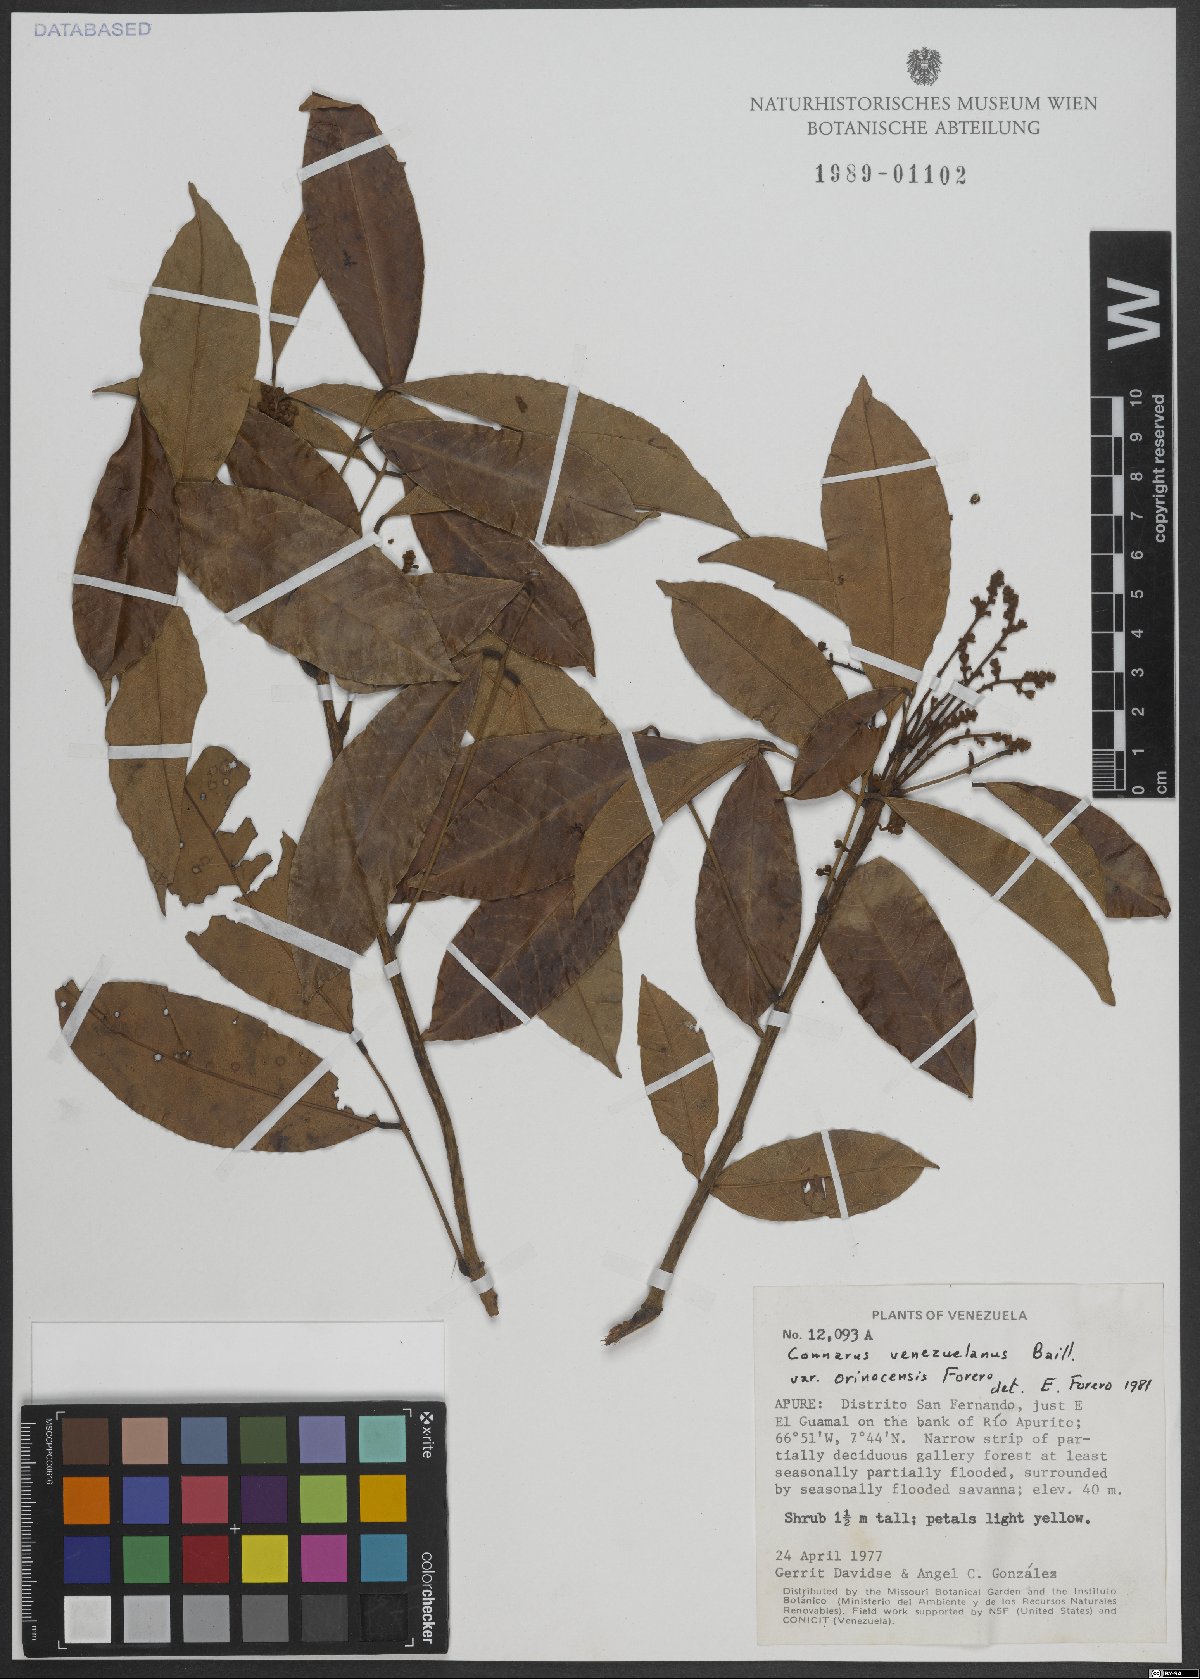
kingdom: Plantae
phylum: Tracheophyta
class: Magnoliopsida
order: Oxalidales
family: Connaraceae
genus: Connarus
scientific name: Connarus venezuelanus
